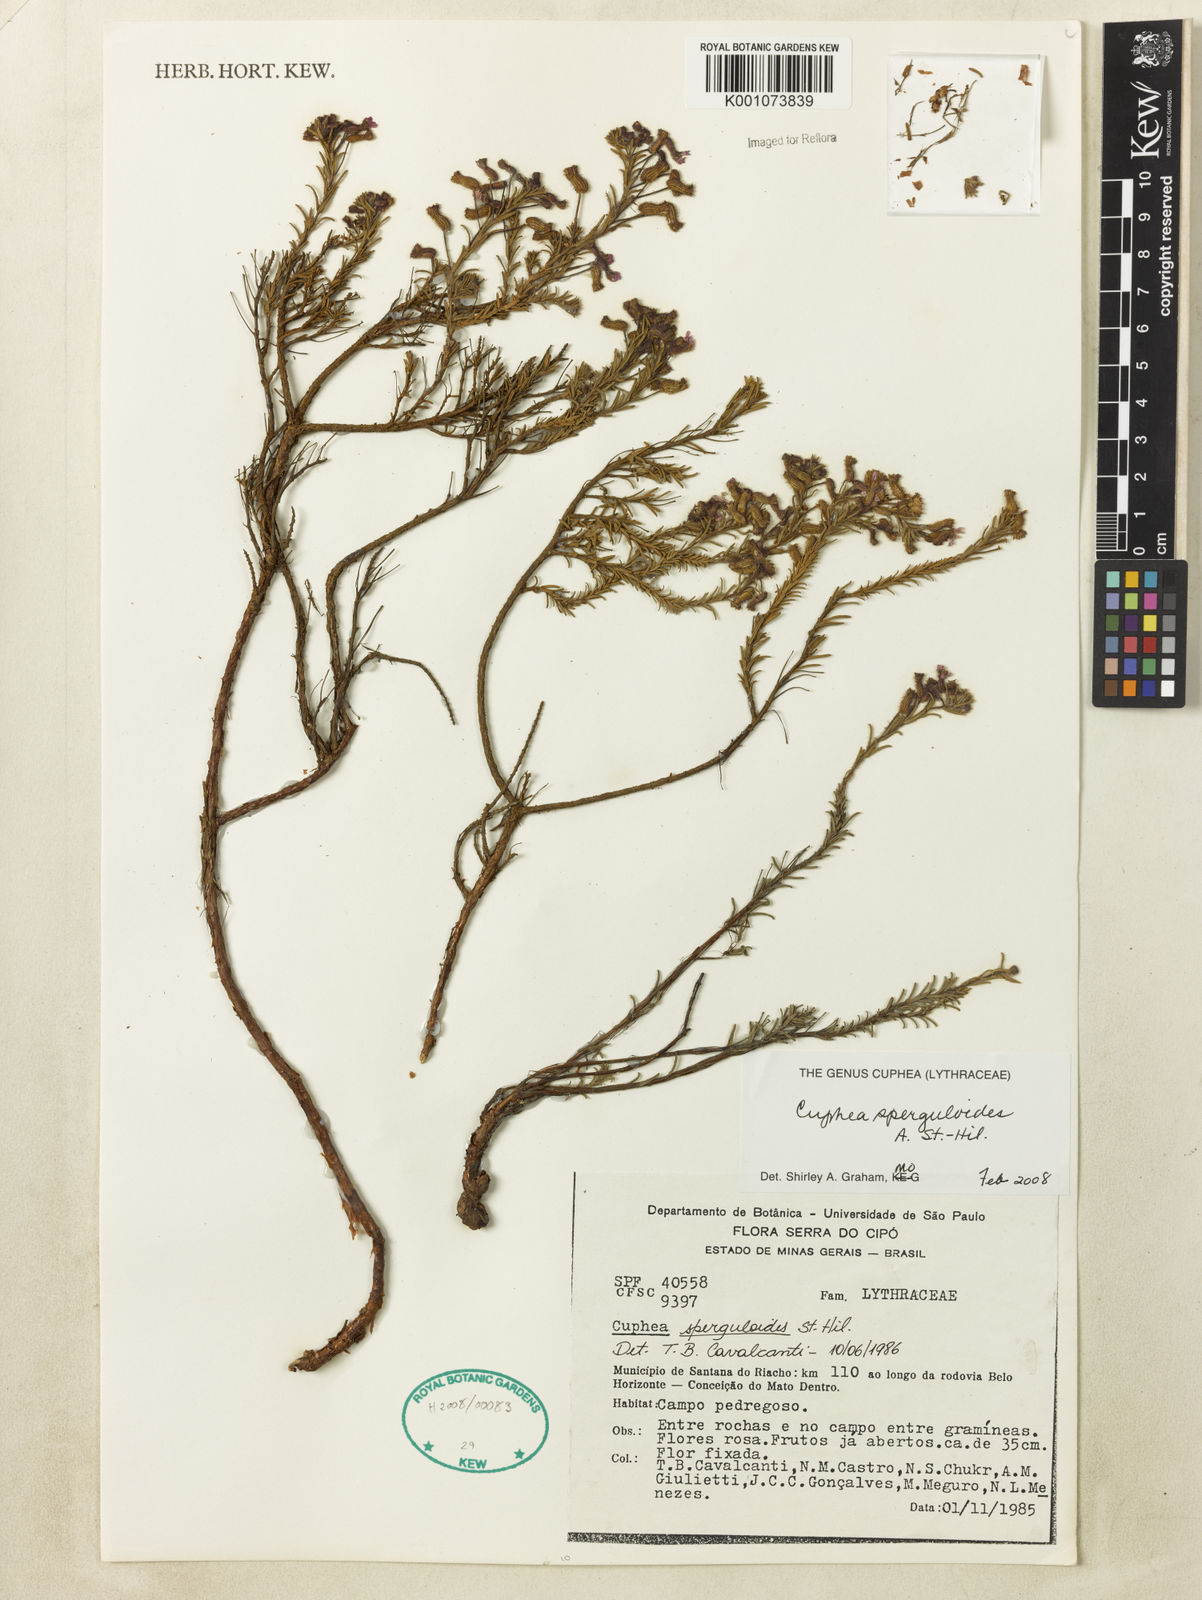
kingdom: Plantae
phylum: Tracheophyta
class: Magnoliopsida
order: Myrtales
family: Lythraceae
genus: Cuphea
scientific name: Cuphea sperguloides
